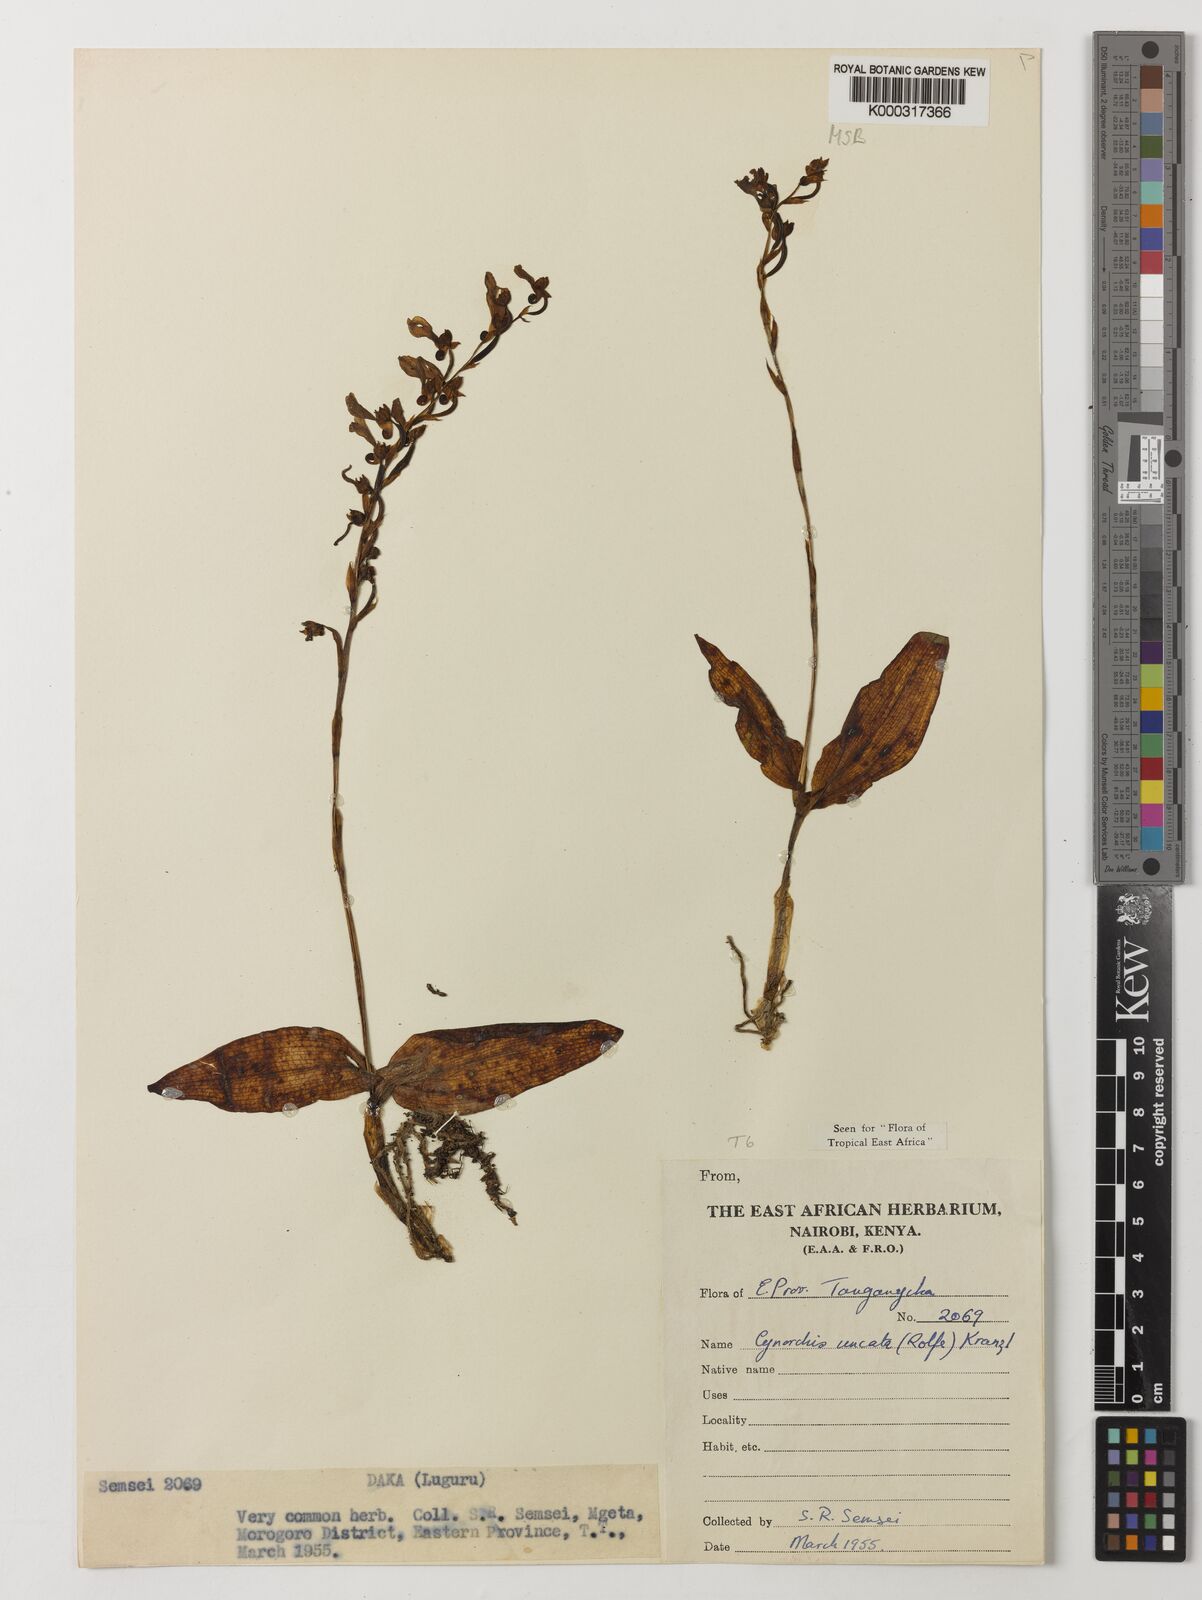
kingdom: Plantae
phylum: Tracheophyta
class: Liliopsida
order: Asparagales
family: Orchidaceae
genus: Cynorkis
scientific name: Cynorkis uncata
